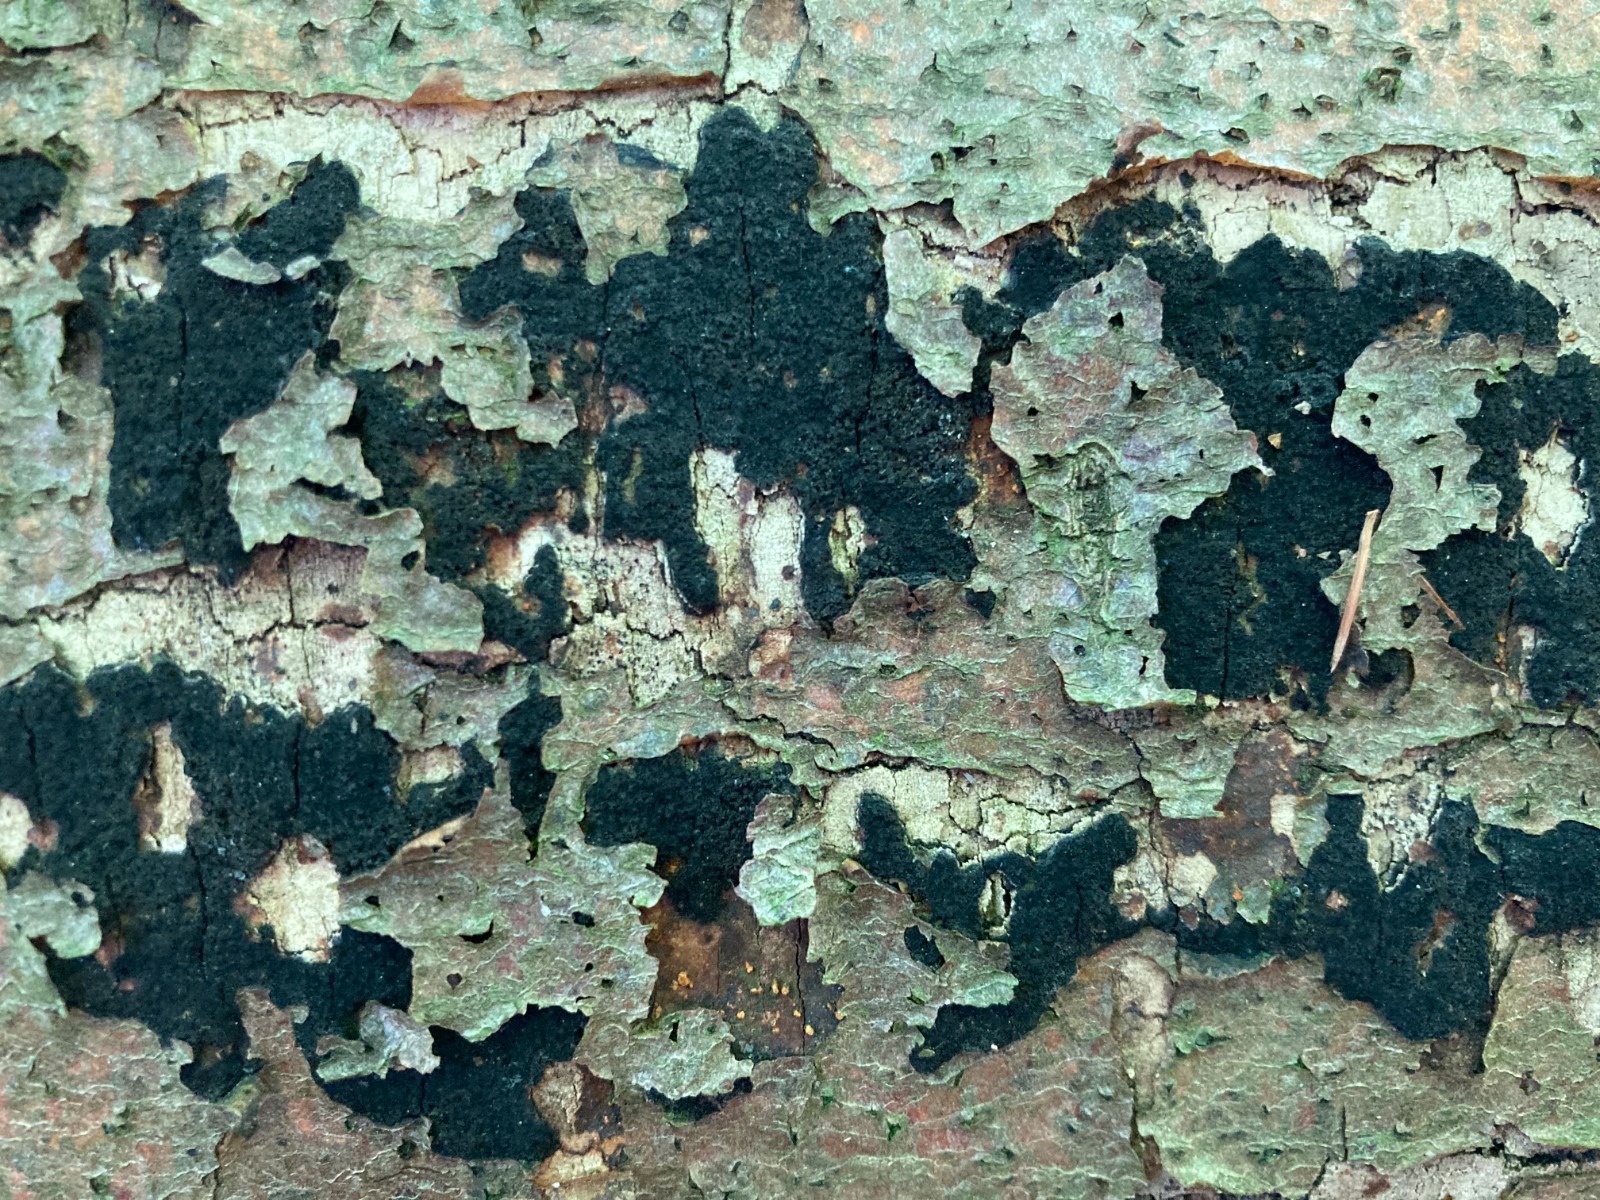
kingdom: Fungi
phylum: Ascomycota
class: Sordariomycetes
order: Xylariales
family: Diatrypaceae
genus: Eutypa
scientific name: Eutypa spinosa
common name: grov kulskorpe
